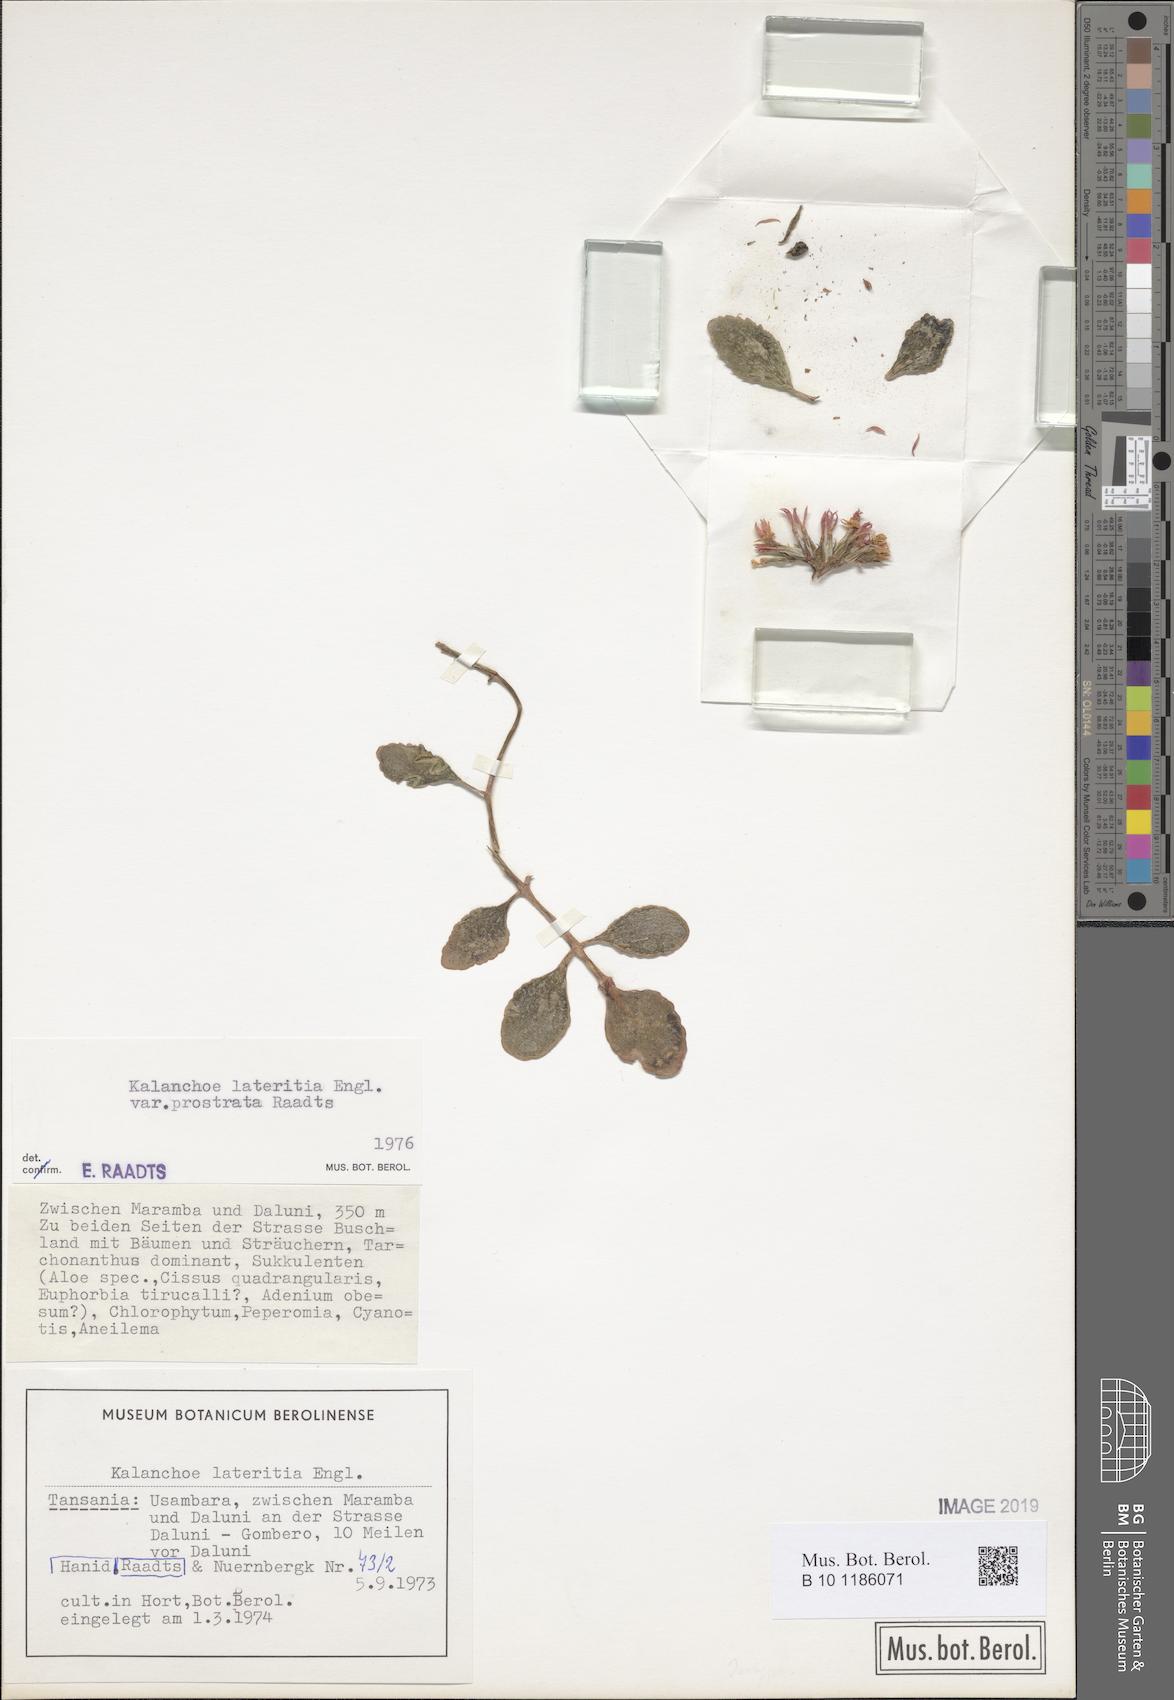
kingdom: Plantae
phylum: Tracheophyta
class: Magnoliopsida
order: Saxifragales
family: Crassulaceae
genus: Kalanchoe
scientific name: Kalanchoe lateritia
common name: Kalanchoe
